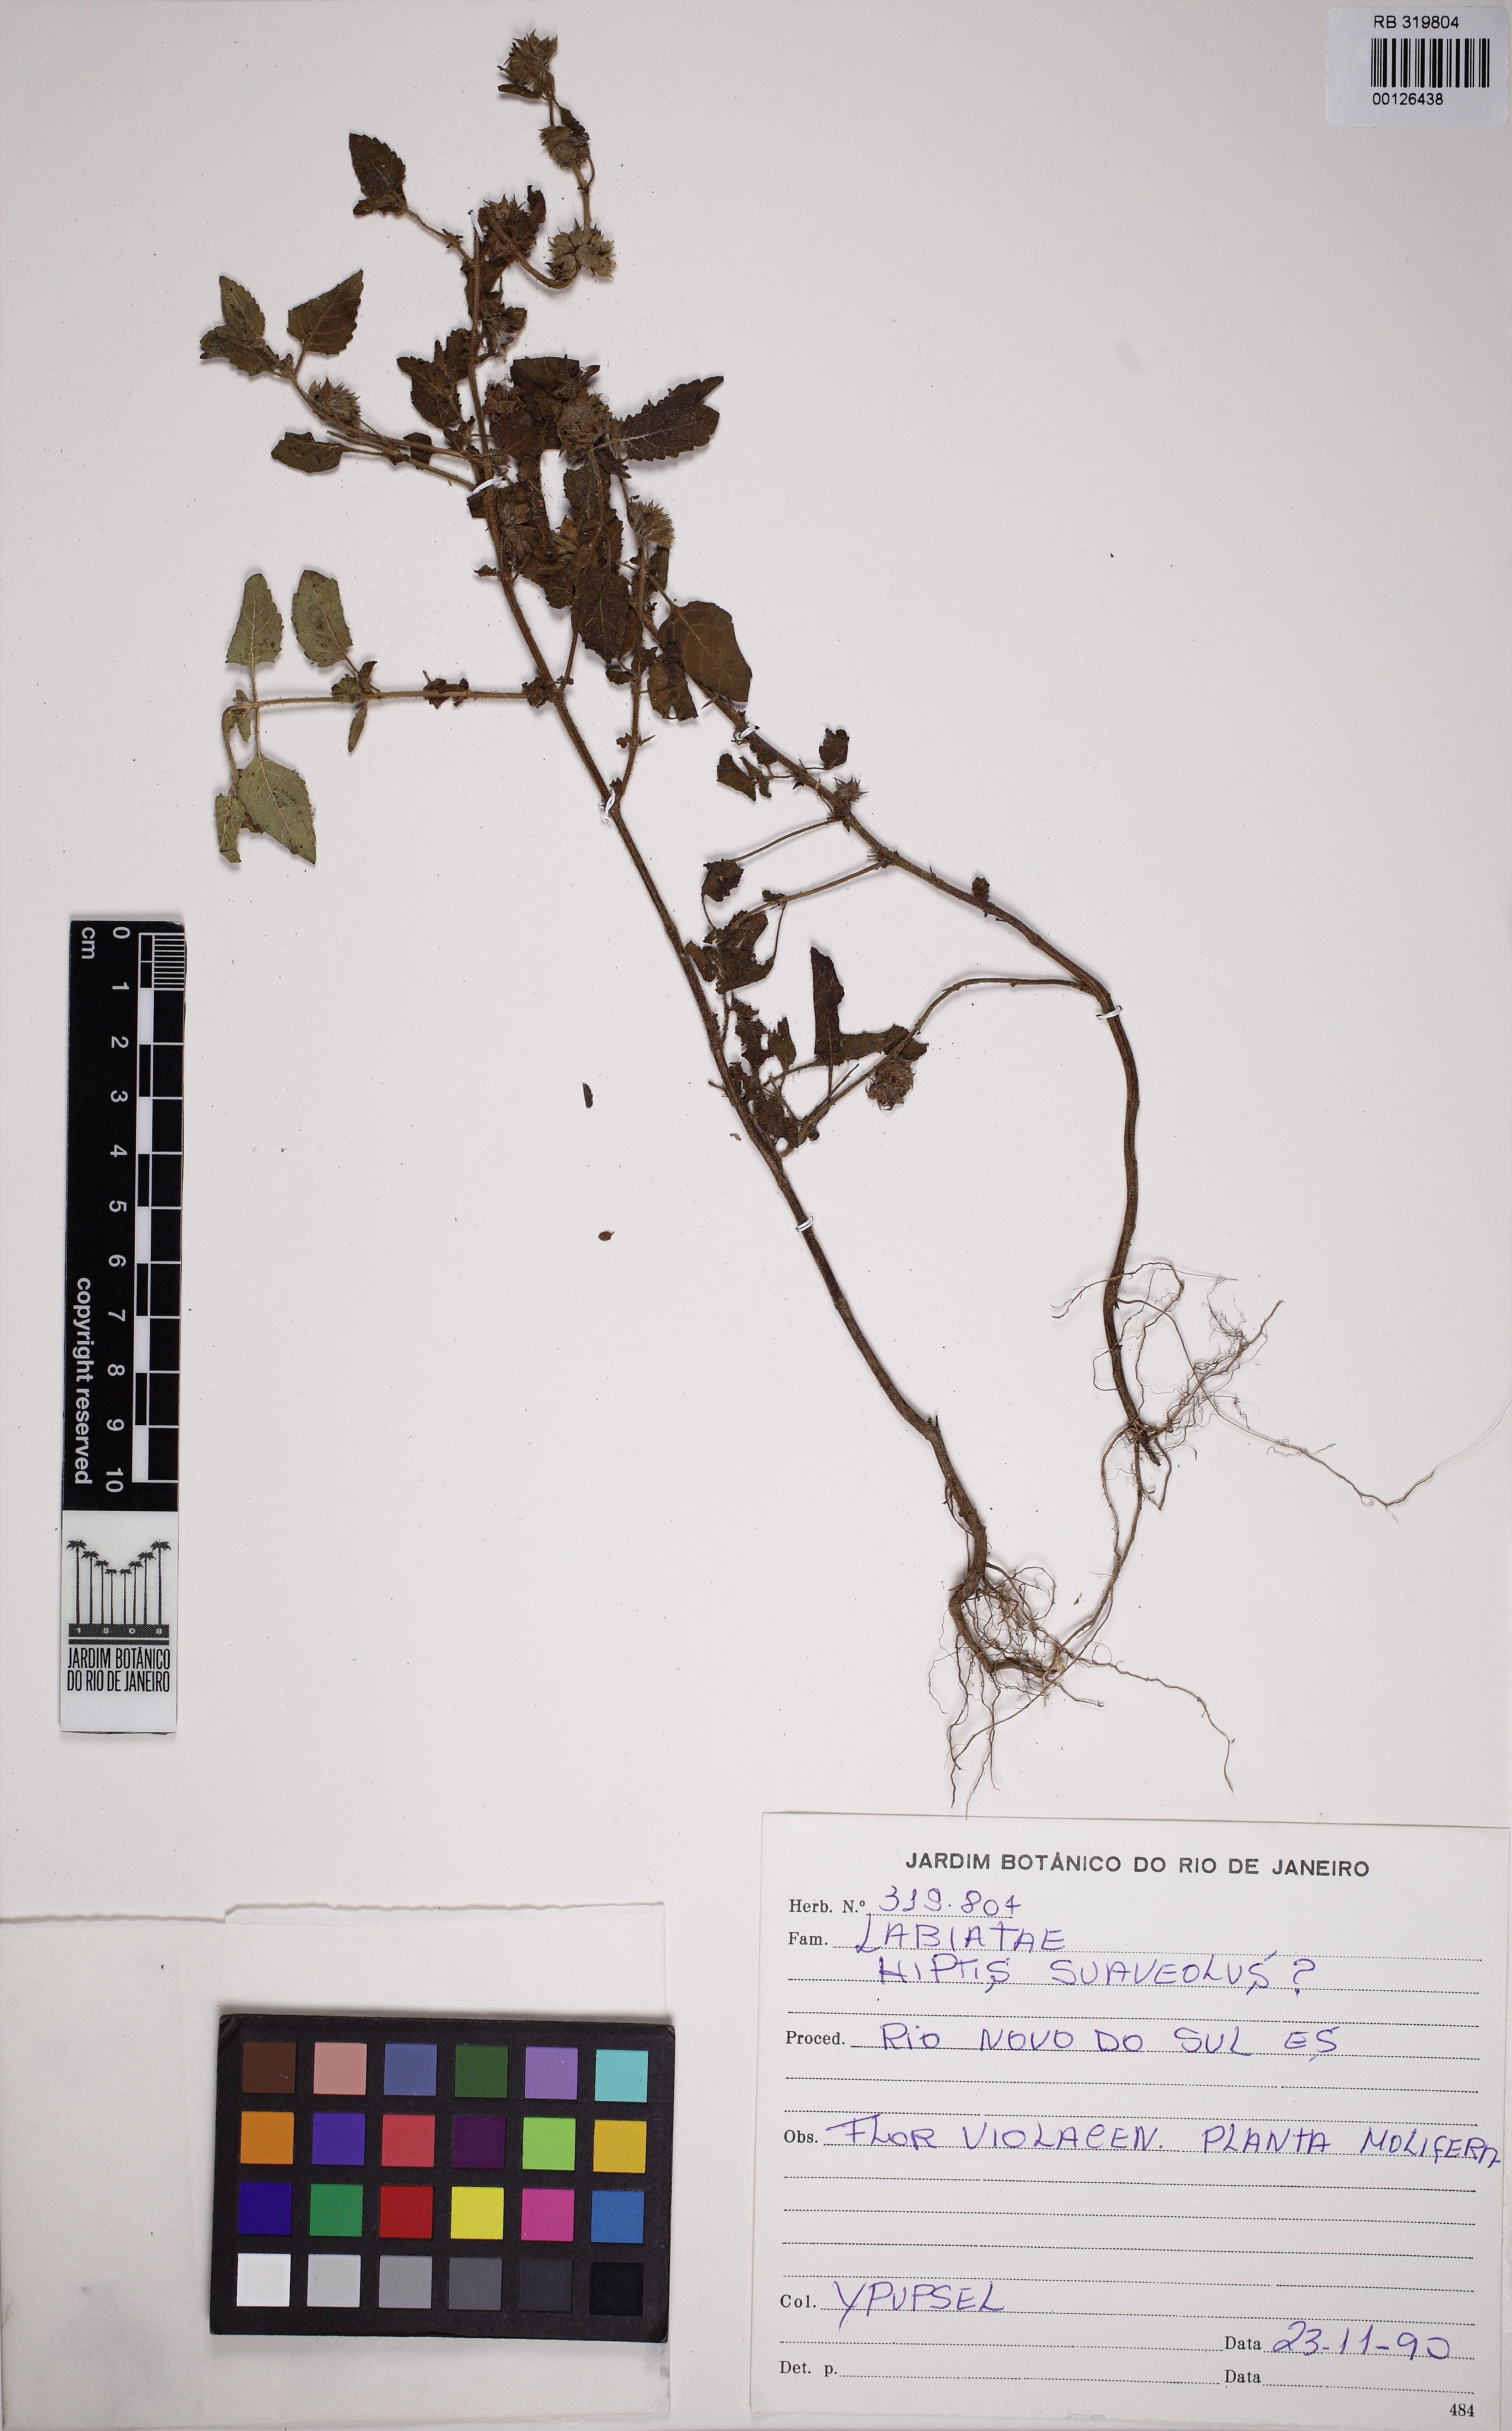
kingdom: Plantae
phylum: Tracheophyta
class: Magnoliopsida
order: Lamiales
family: Lamiaceae
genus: Mesosphaerum
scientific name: Mesosphaerum suaveolens
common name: Pignut
